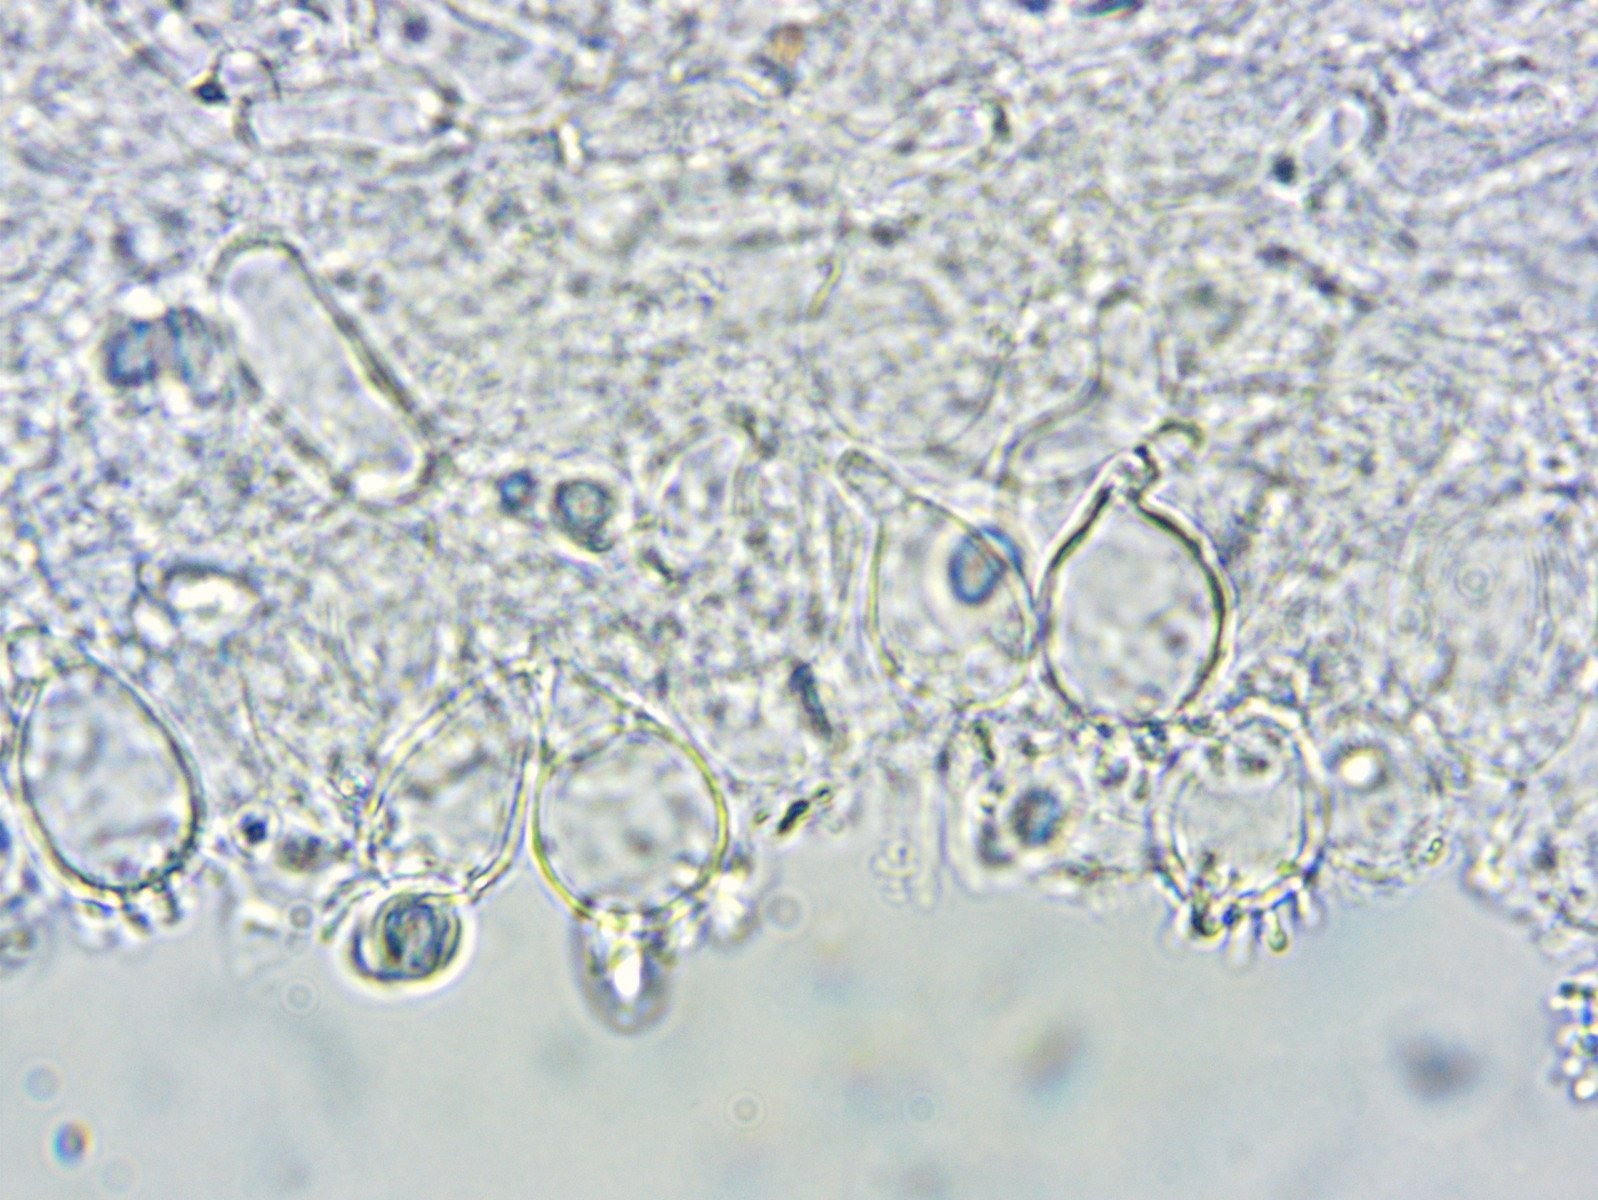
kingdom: Fungi
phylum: Basidiomycota
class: Agaricomycetes
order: Agaricales
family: Mycenaceae
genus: Mycena
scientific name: Mycena filopes
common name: jod-huesvamp
